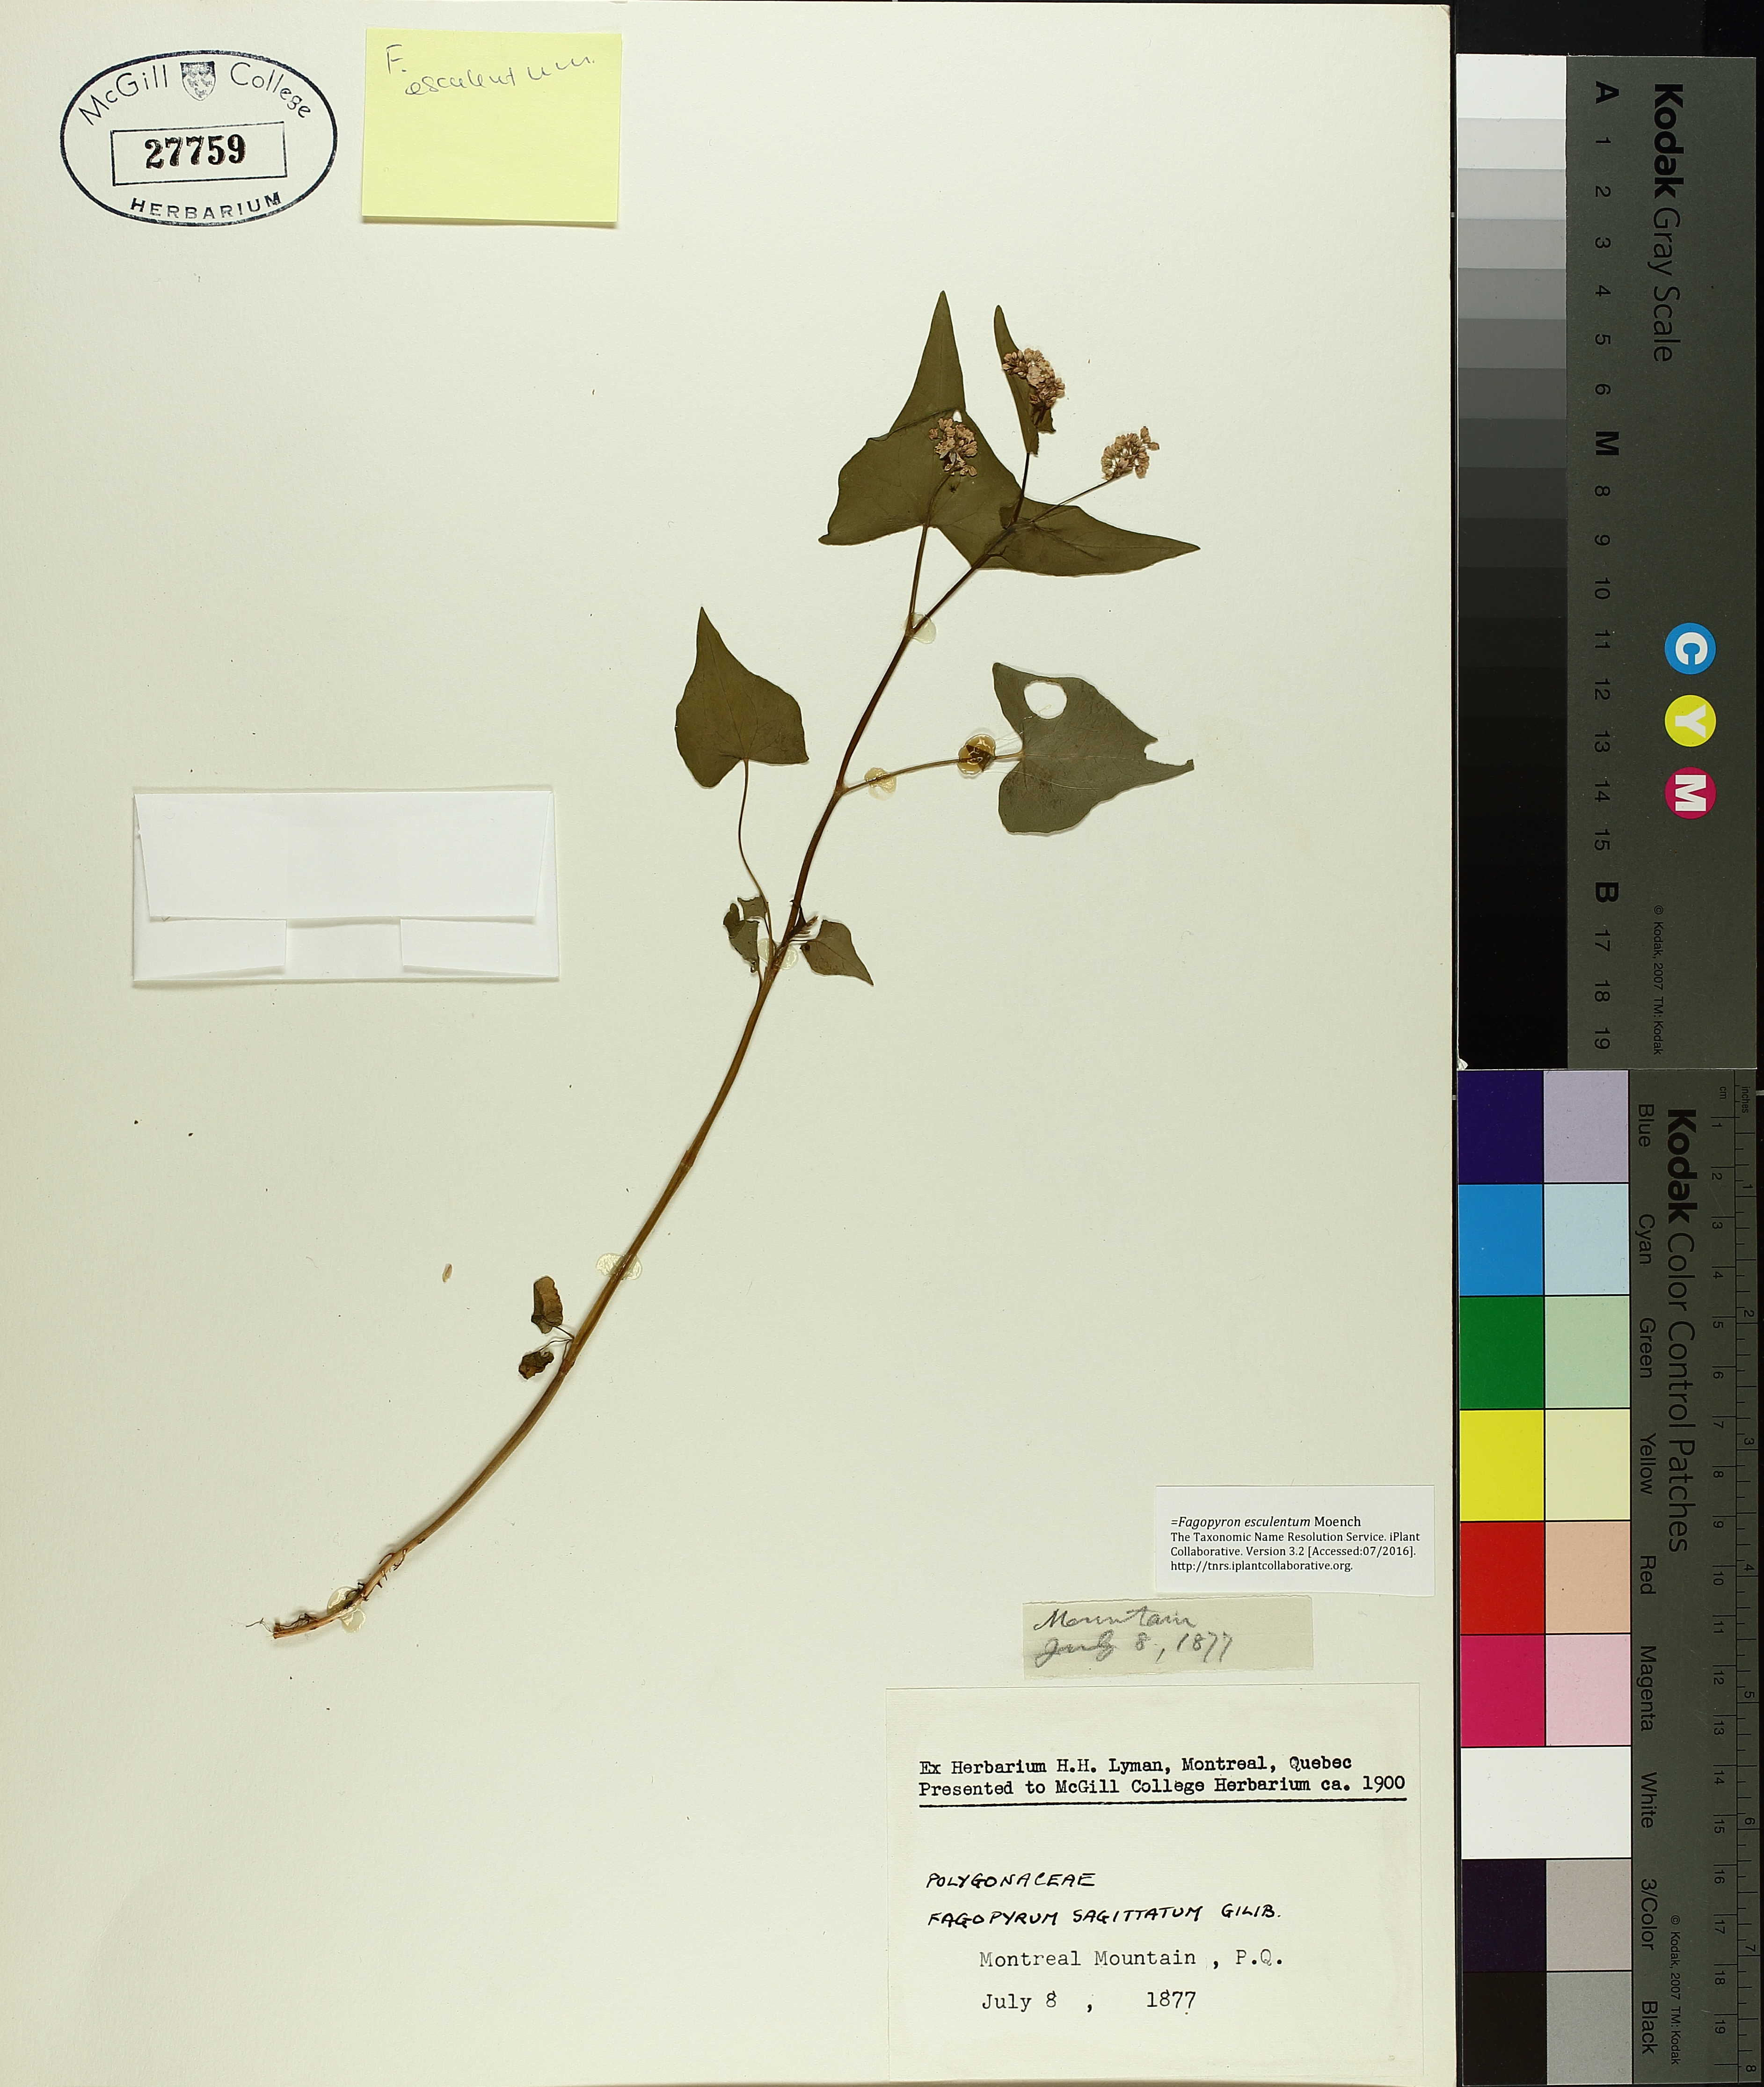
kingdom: Plantae
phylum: Tracheophyta
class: Magnoliopsida
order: Caryophyllales
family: Polygonaceae
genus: Fagopyrum
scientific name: Fagopyrum esculentum
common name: Buckwheat
